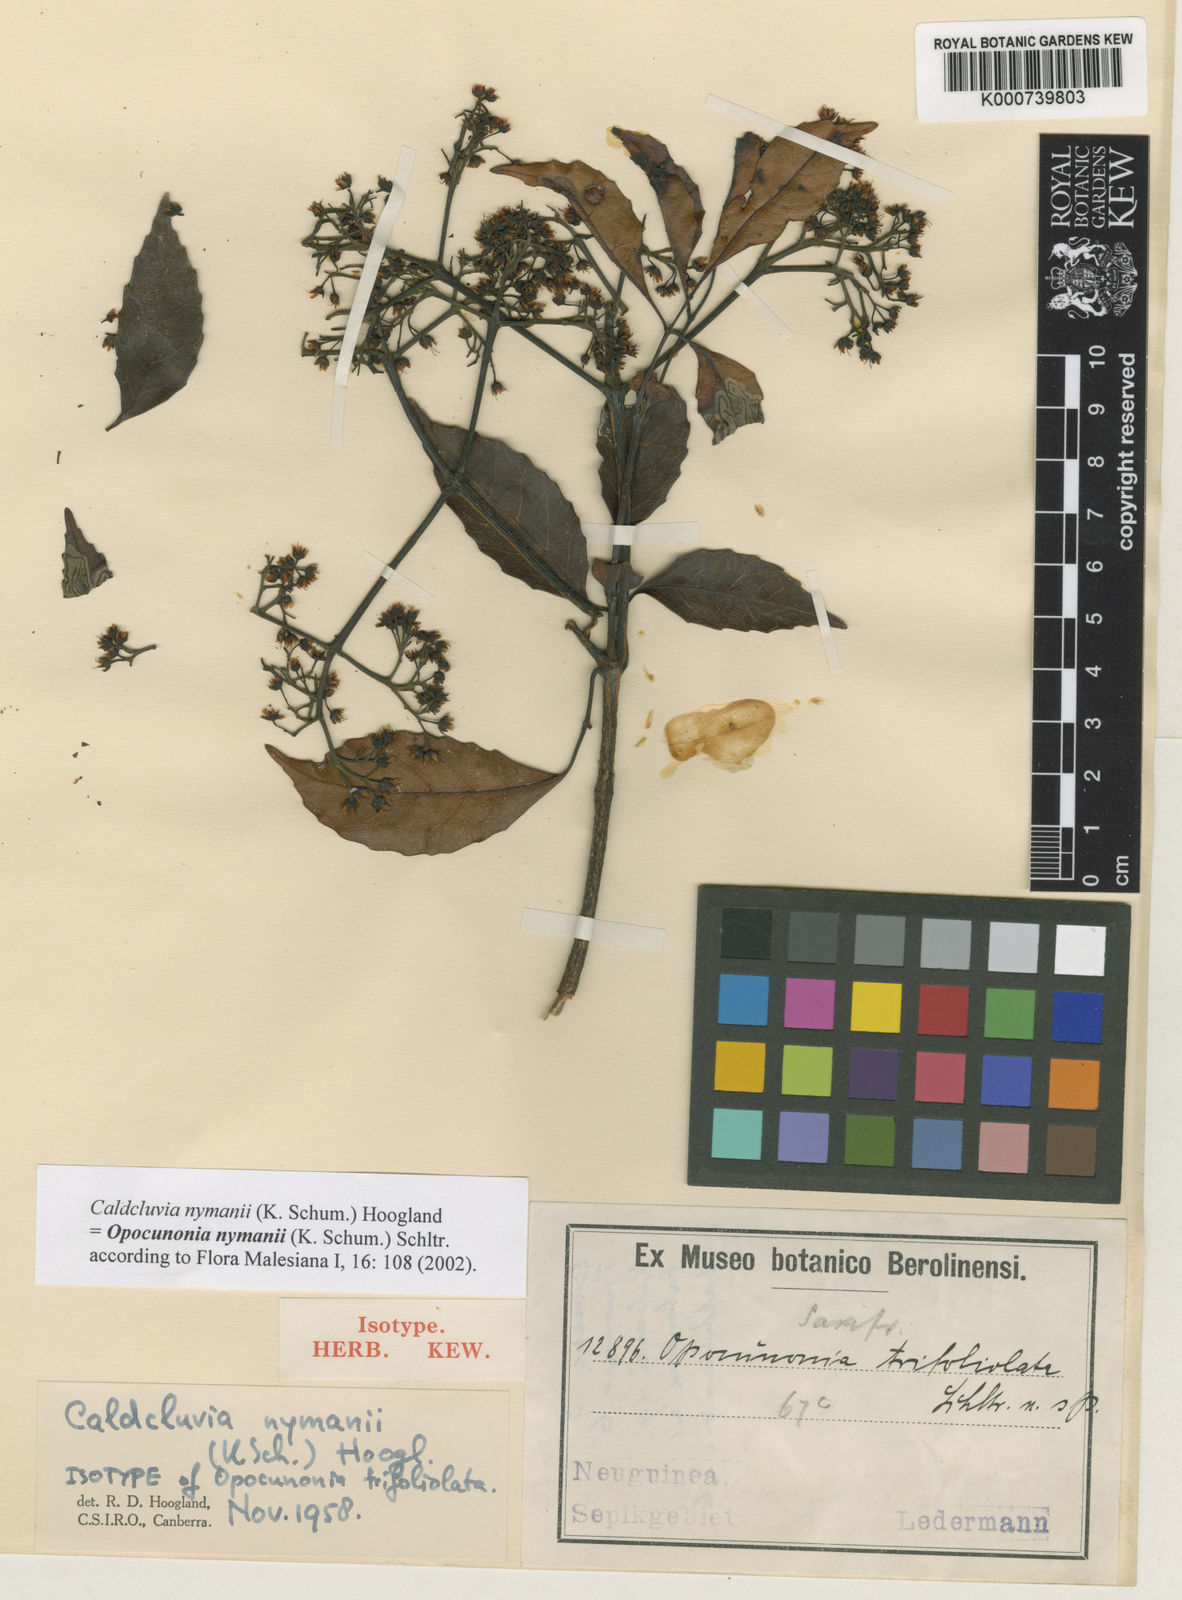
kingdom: Plantae
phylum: Tracheophyta
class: Magnoliopsida
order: Oxalidales
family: Cunoniaceae
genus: Opocunonia
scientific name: Opocunonia nymanii
